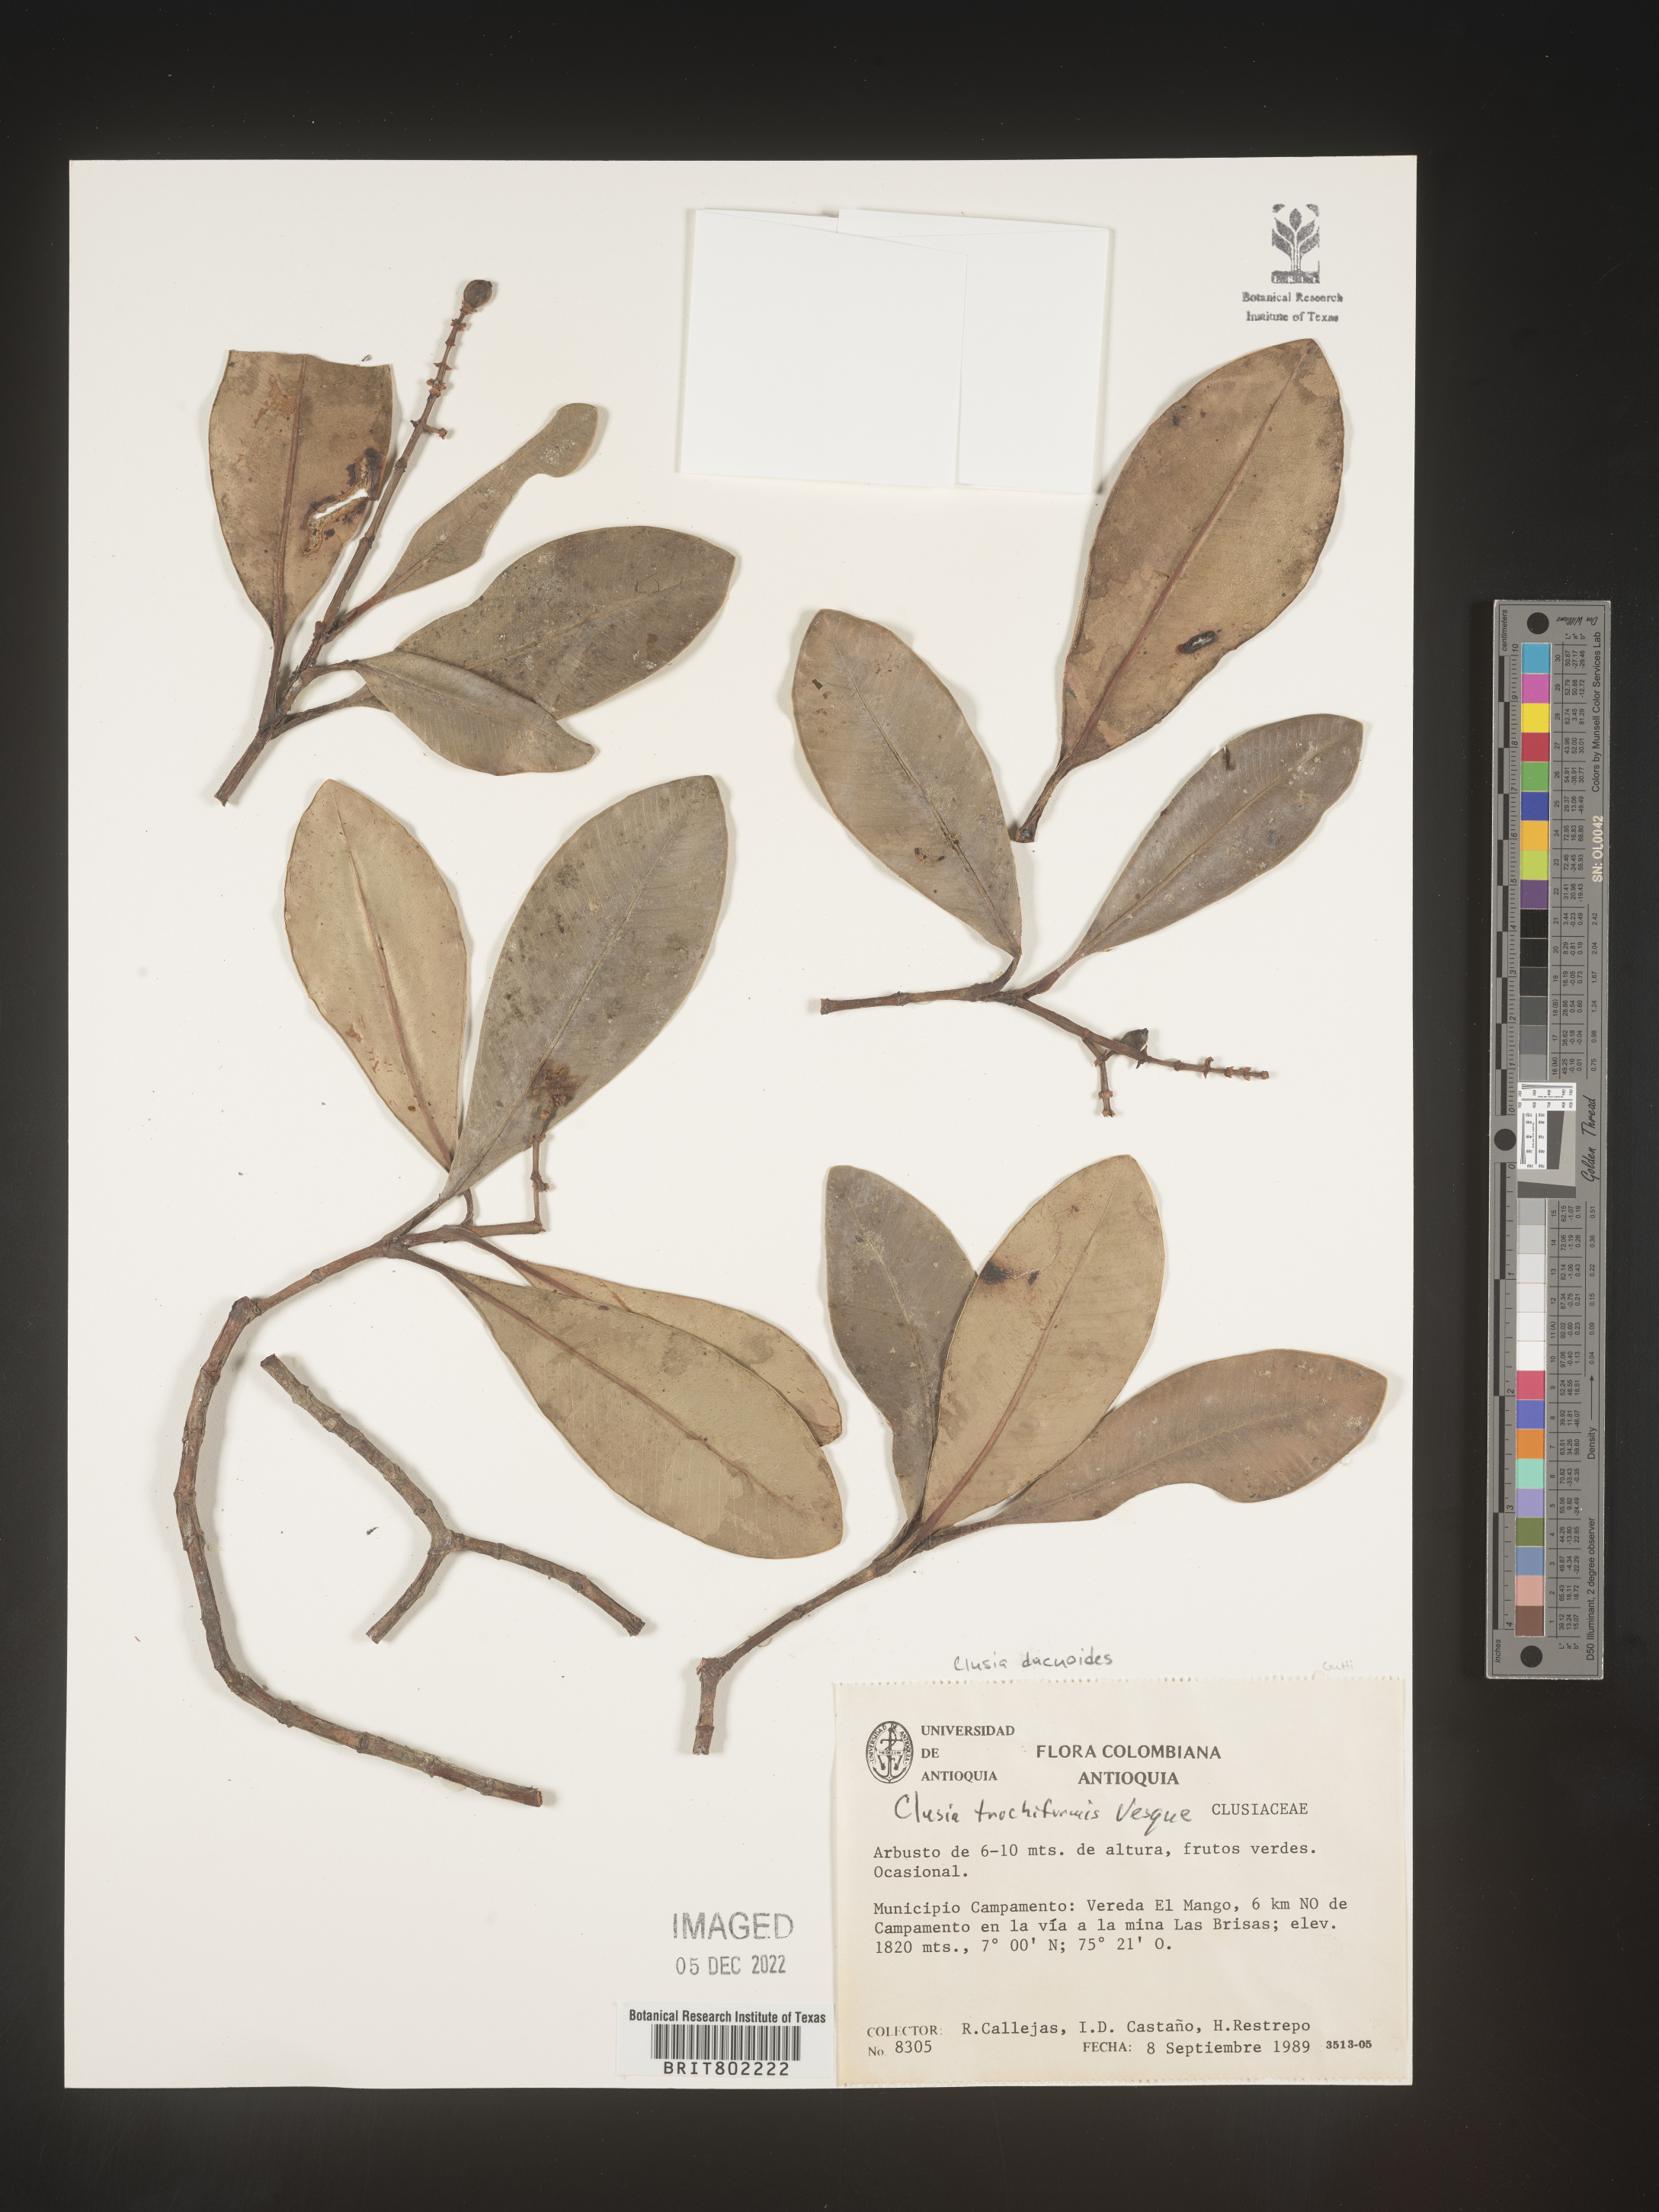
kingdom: Plantae
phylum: Tracheophyta
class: Magnoliopsida
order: Malpighiales
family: Clusiaceae
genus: Clusia
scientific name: Clusia ducuoides
